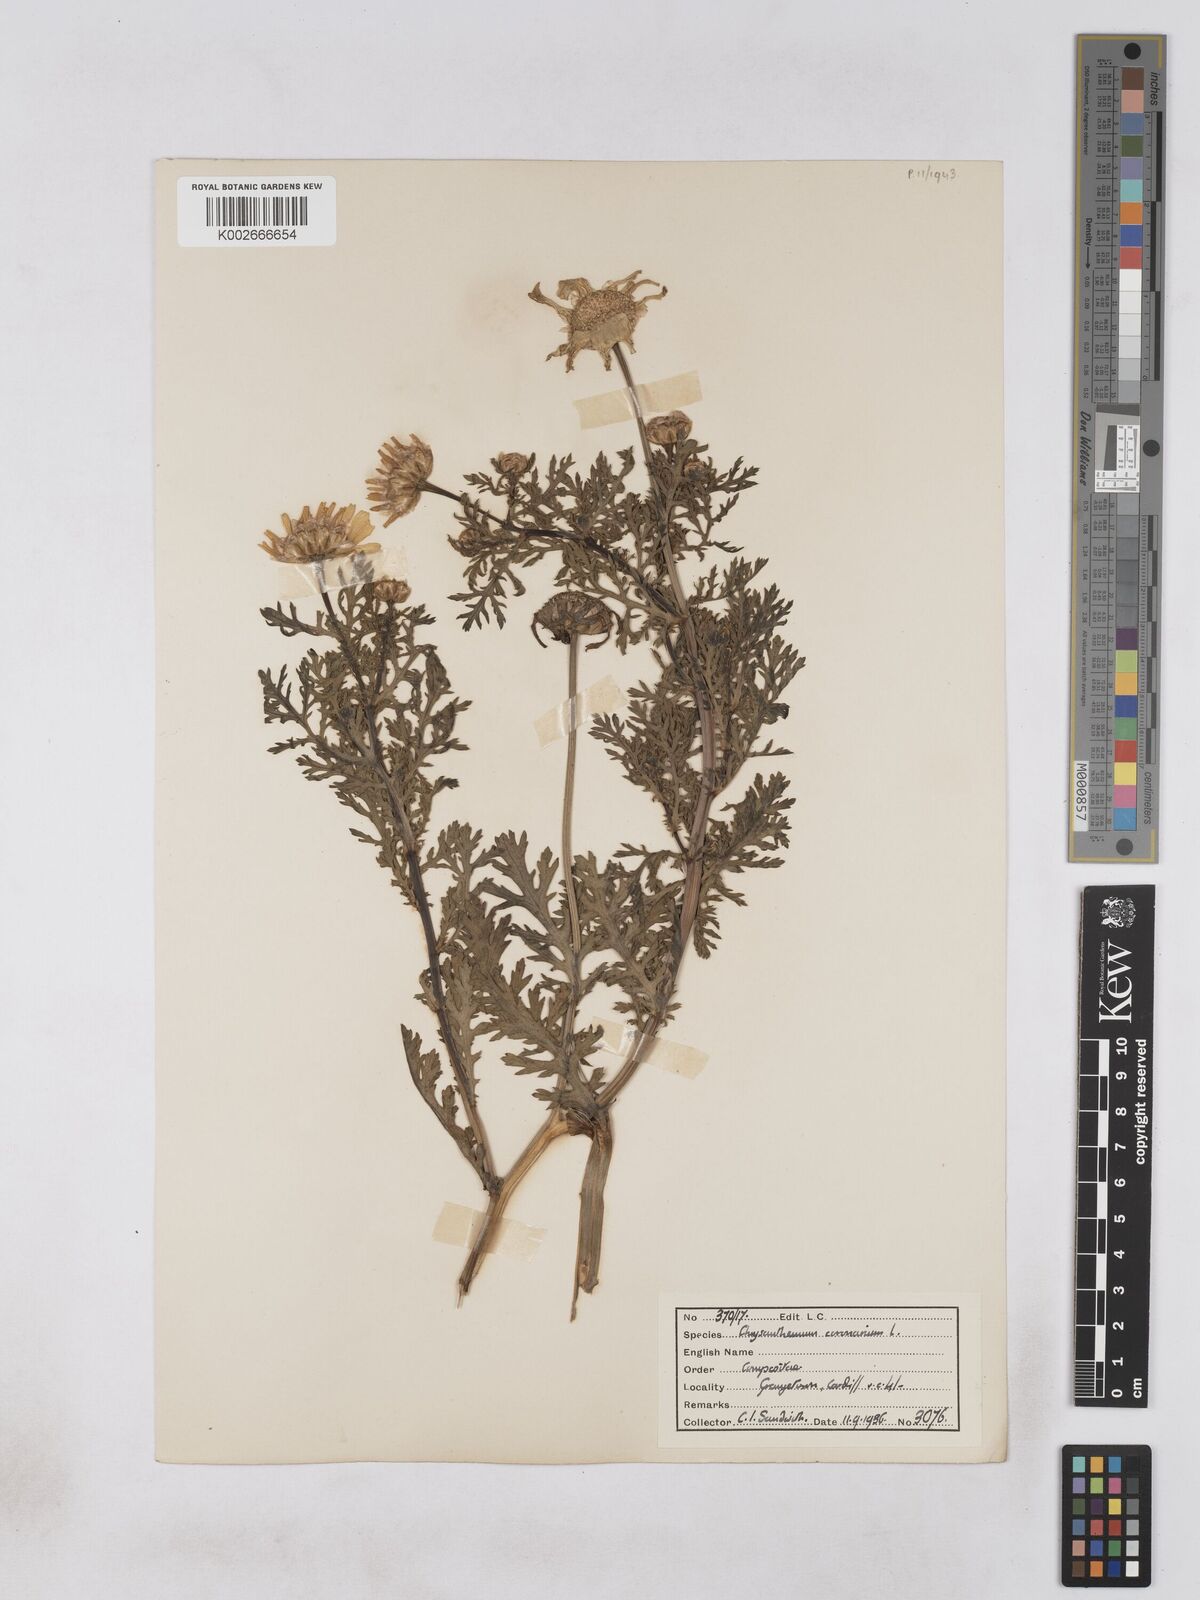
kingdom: Plantae
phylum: Tracheophyta
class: Magnoliopsida
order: Asterales
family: Asteraceae
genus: Glebionis
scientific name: Glebionis coronaria
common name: Crowndaisy
